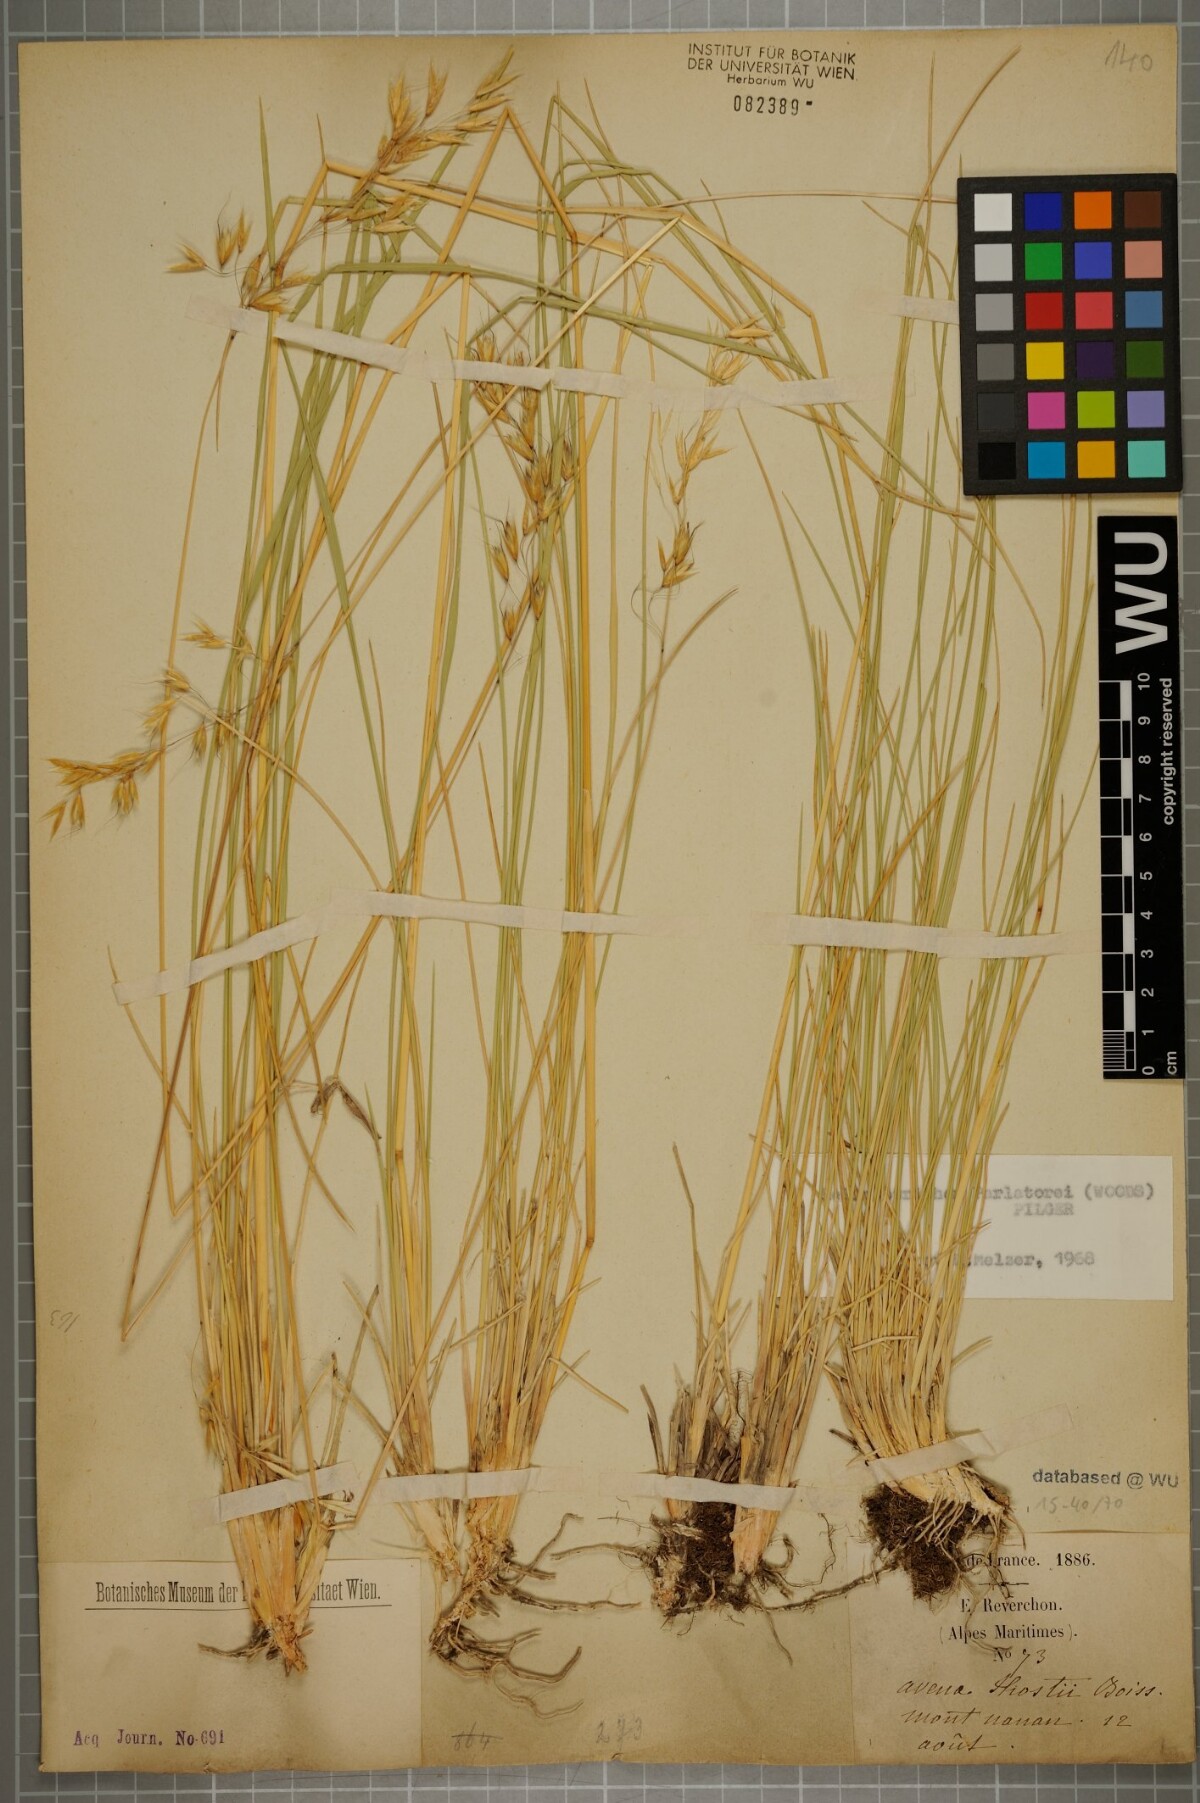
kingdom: Plantae
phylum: Tracheophyta
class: Liliopsida
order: Poales
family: Poaceae
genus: Helictotrichon
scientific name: Helictotrichon parlatorei
